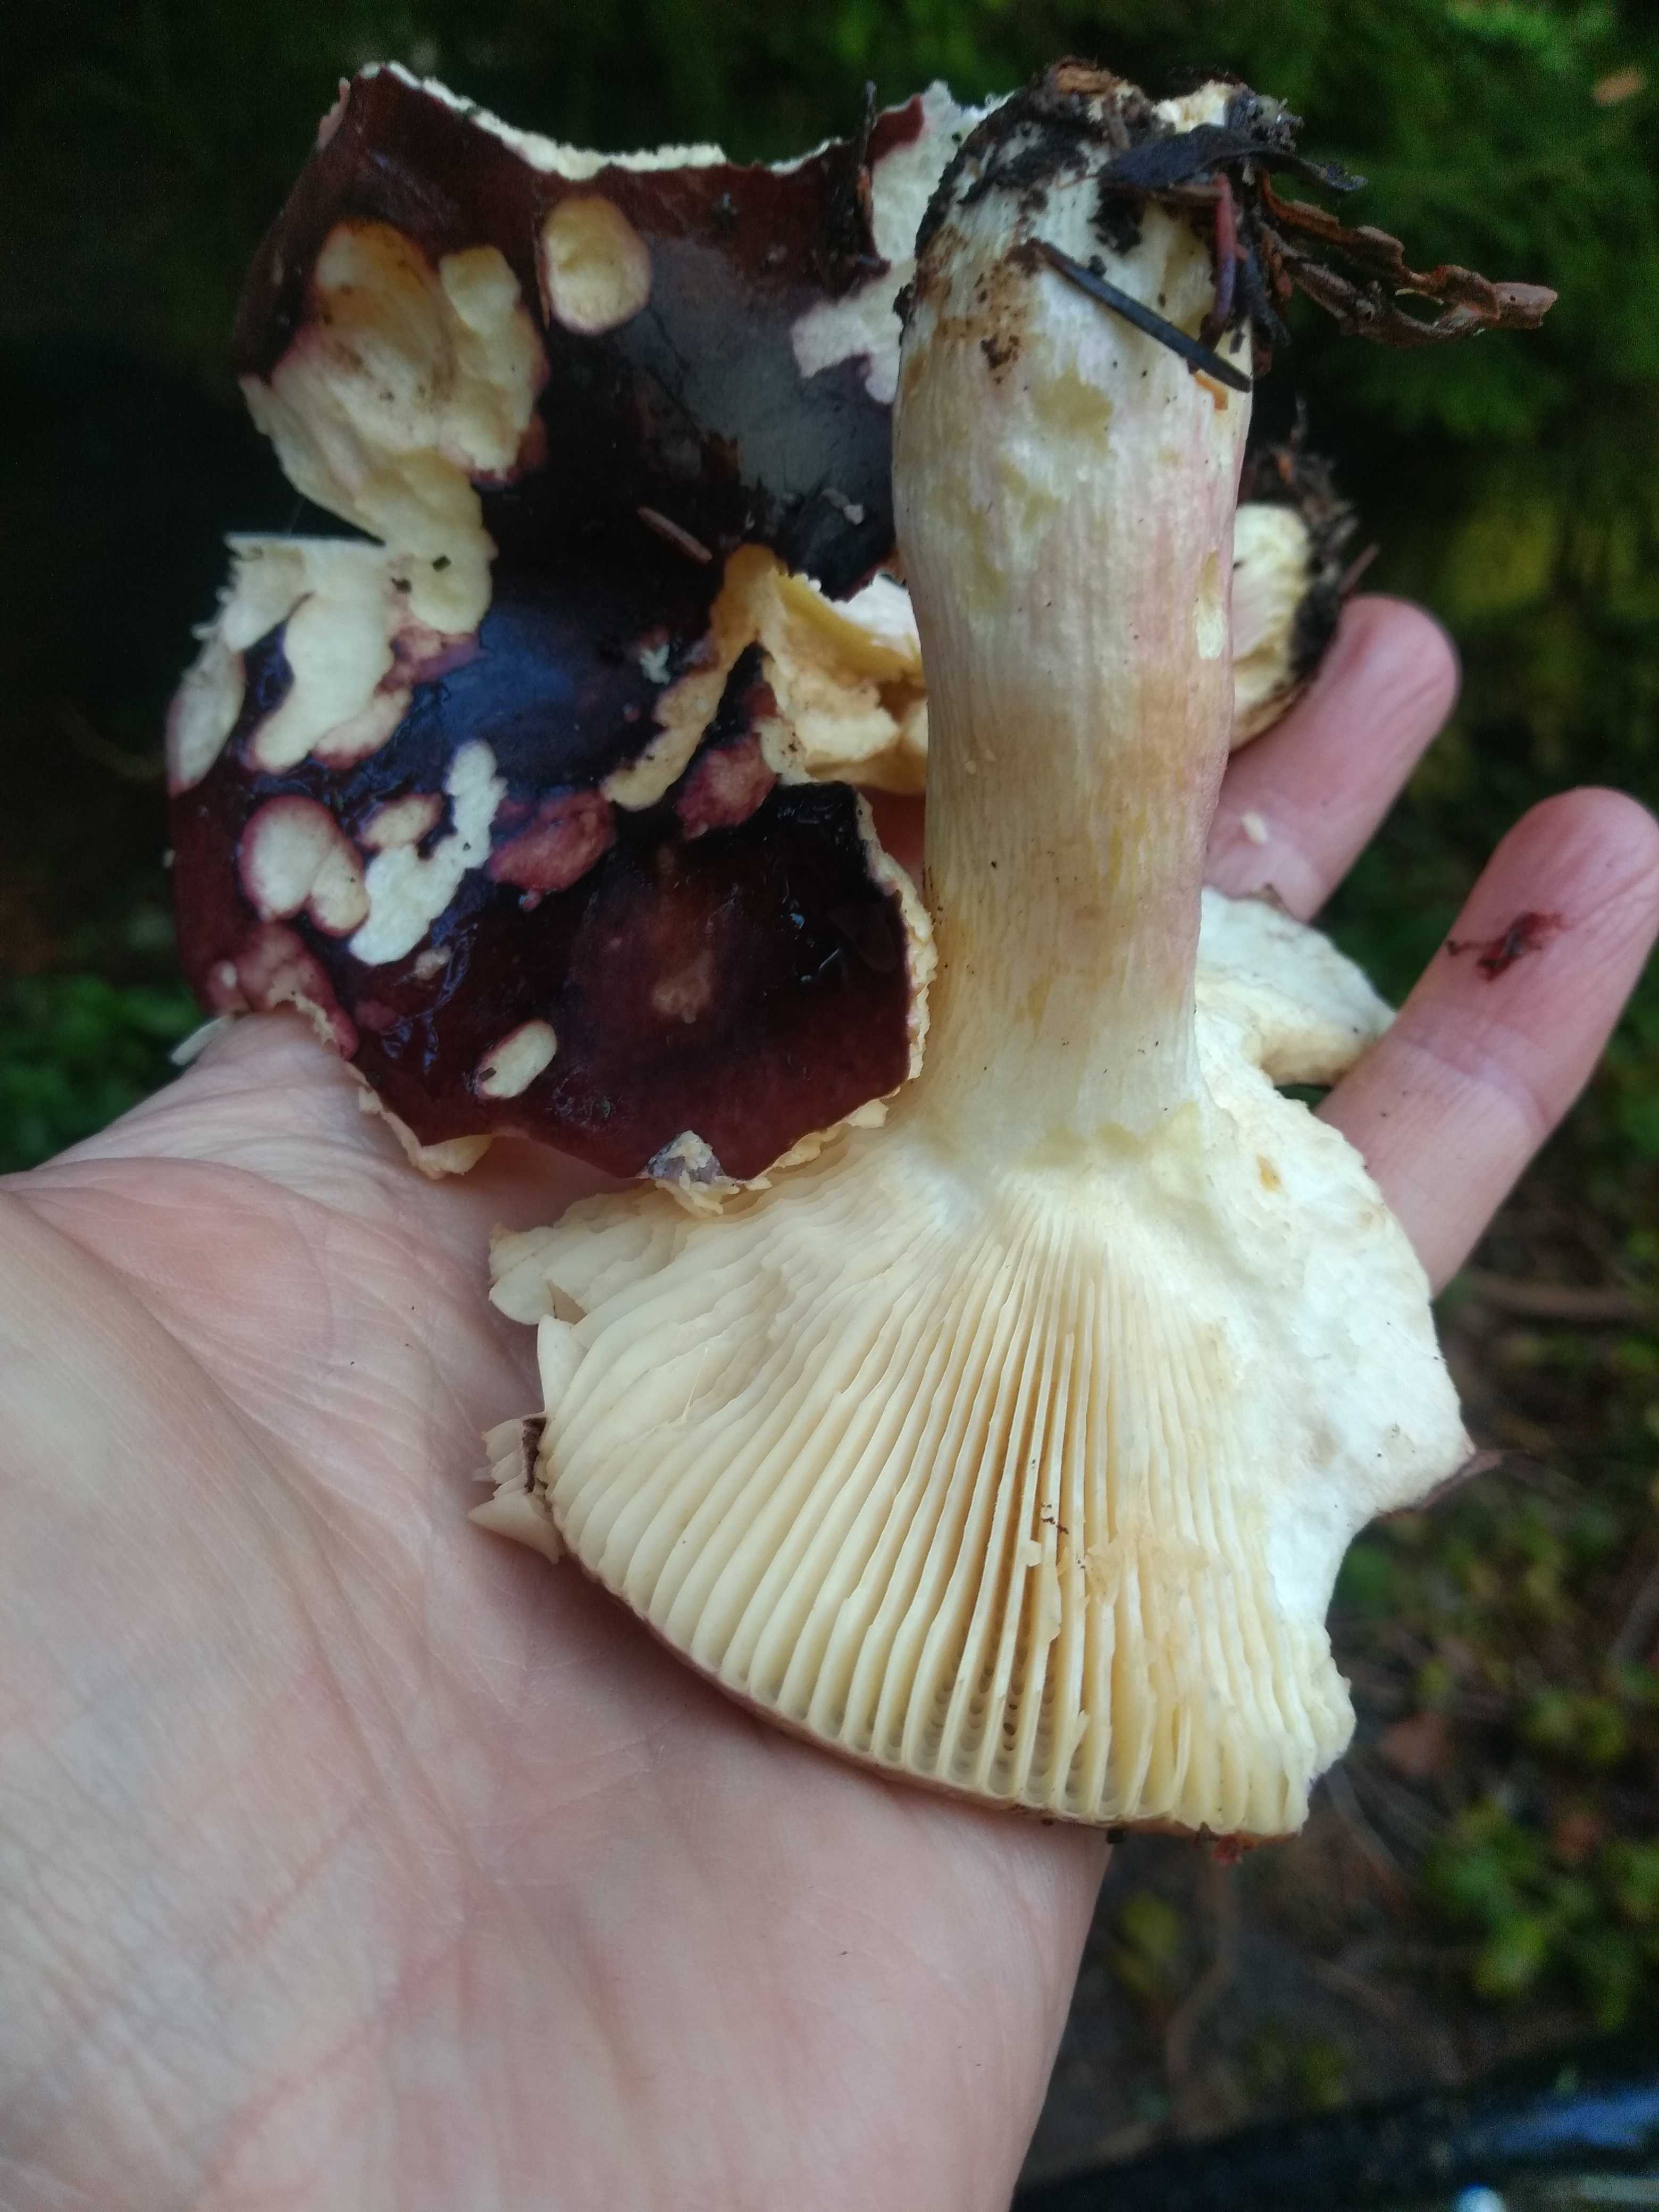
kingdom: Fungi
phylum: Basidiomycota
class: Agaricomycetes
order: Russulales
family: Russulaceae
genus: Russula
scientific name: Russula
